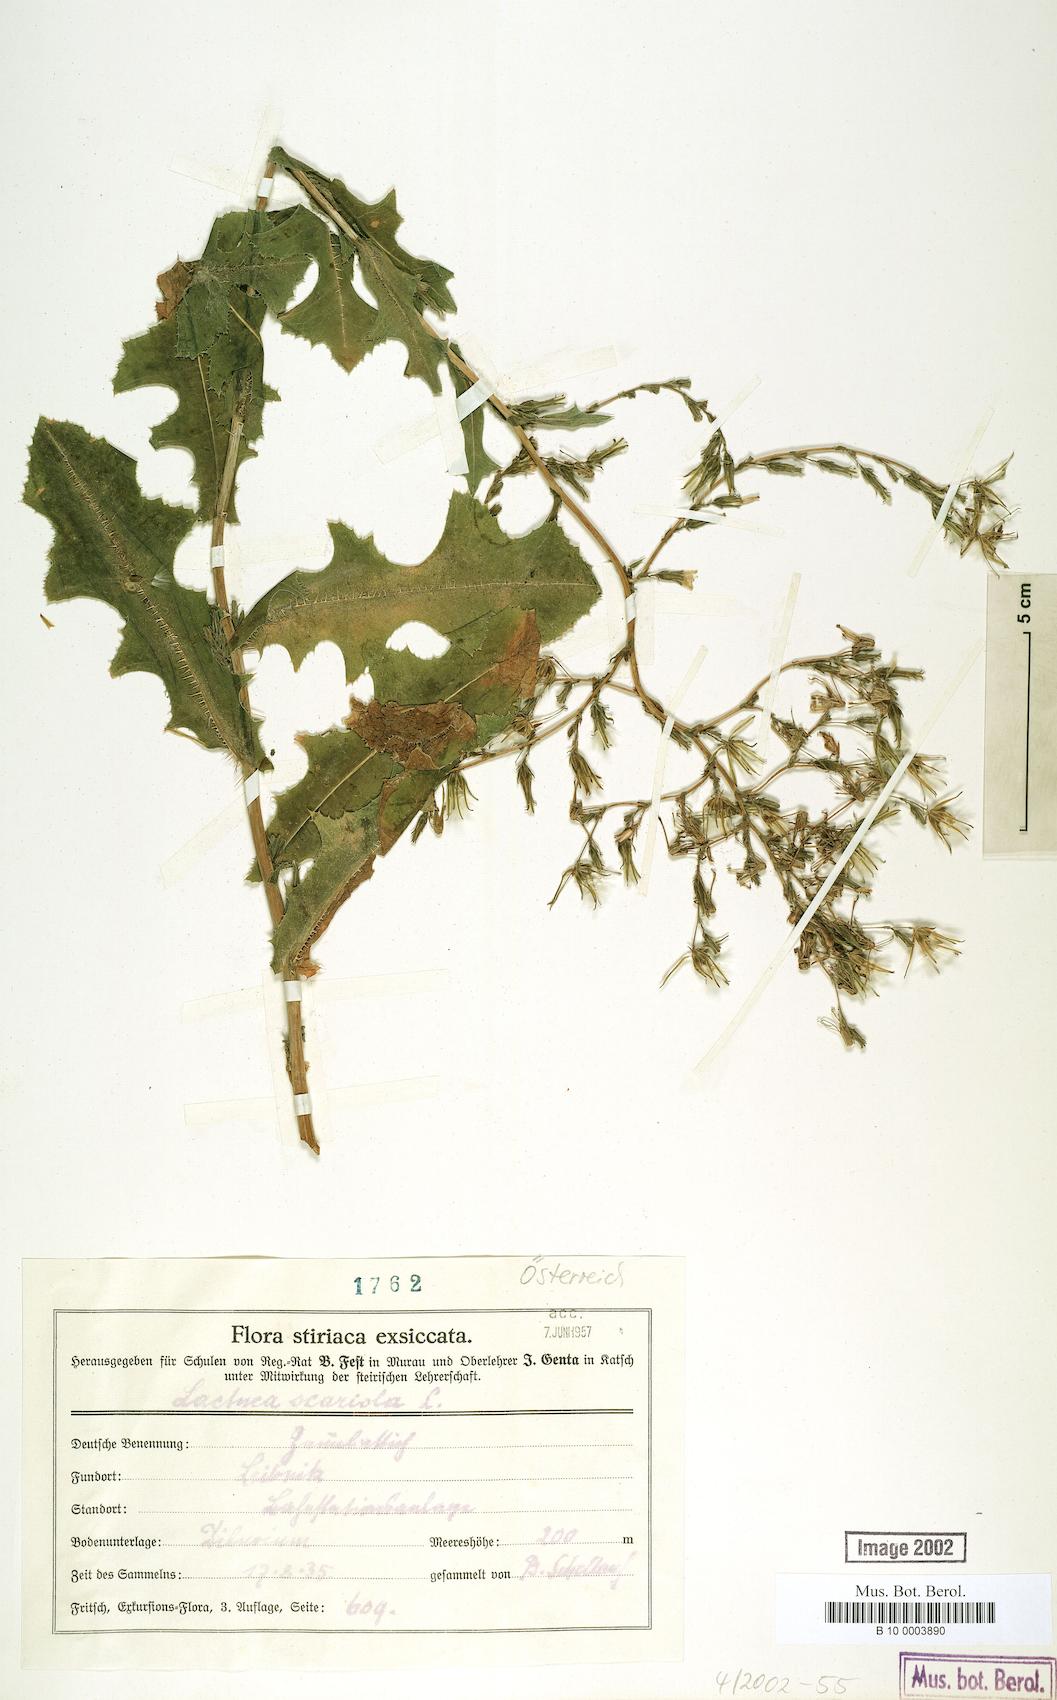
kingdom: Plantae
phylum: Tracheophyta
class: Magnoliopsida
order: Asterales
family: Asteraceae
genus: Lactuca
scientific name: Lactuca serriola
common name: Prickly lettuce
